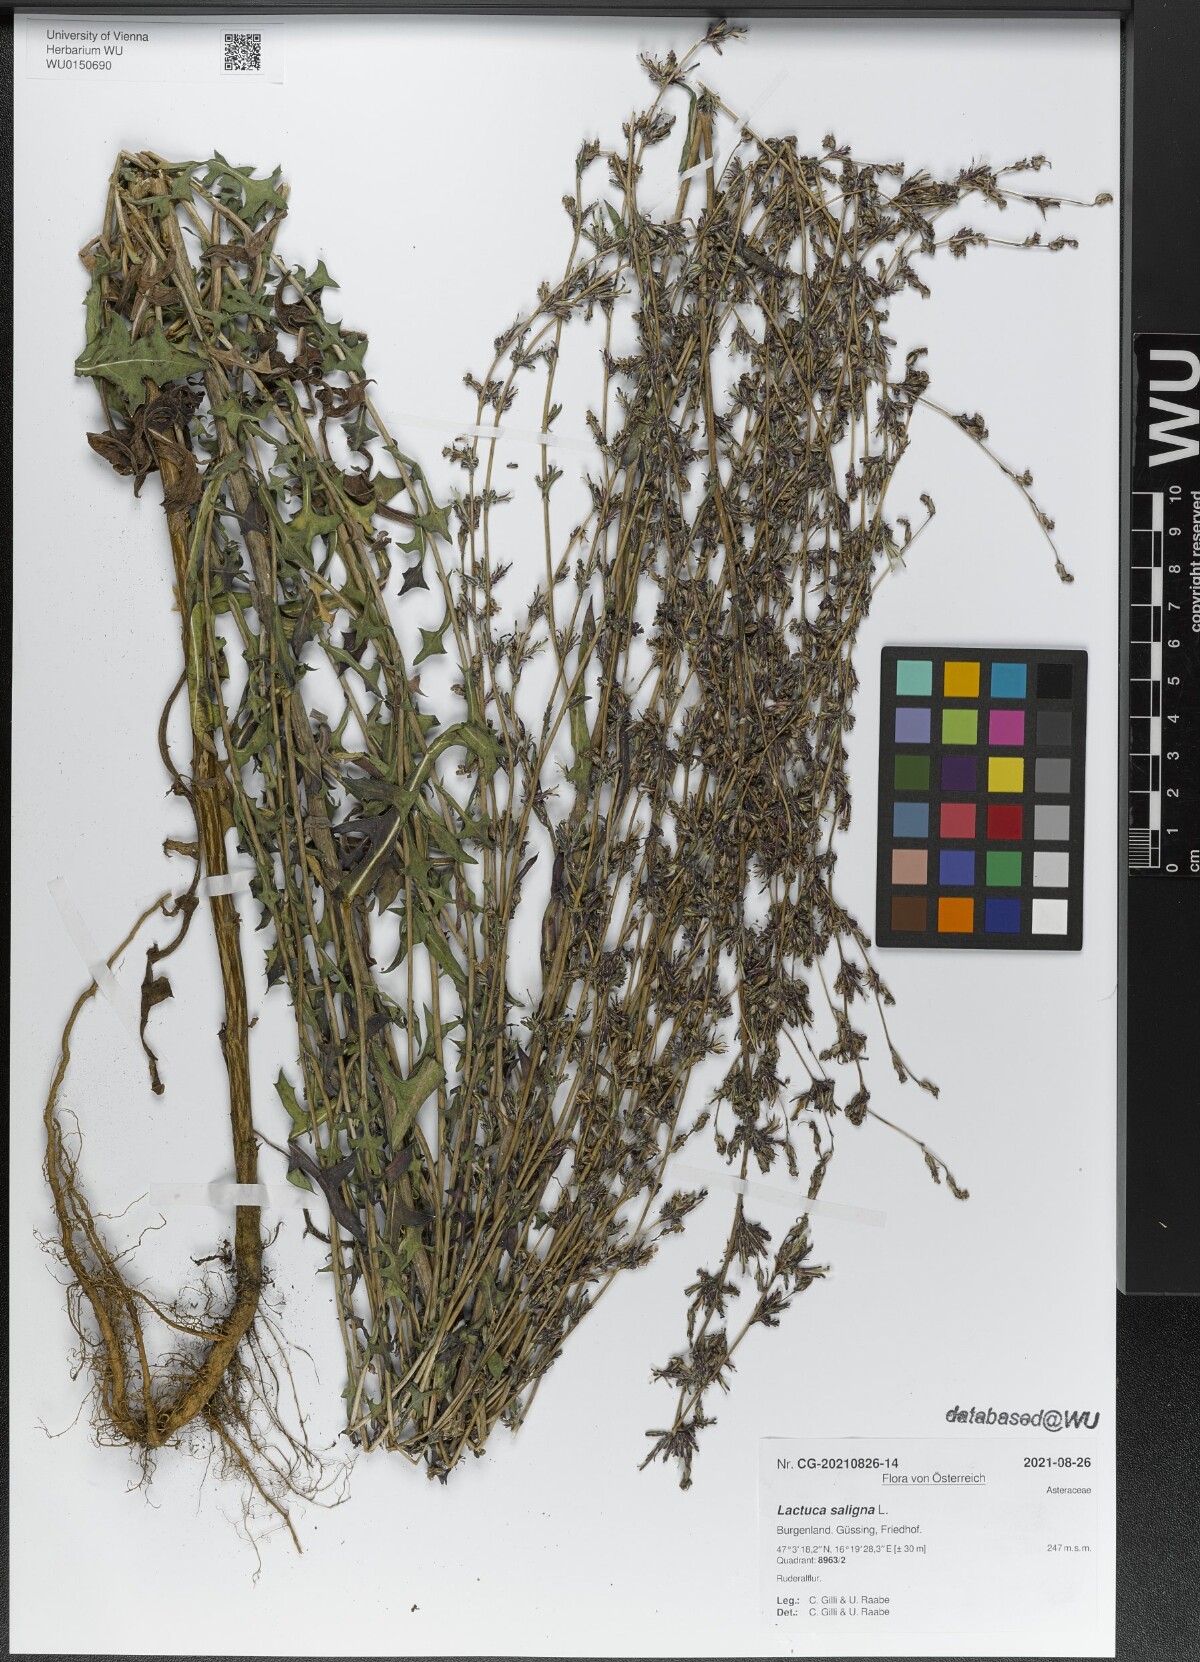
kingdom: Plantae
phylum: Tracheophyta
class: Magnoliopsida
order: Asterales
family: Asteraceae
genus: Lactuca
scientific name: Lactuca saligna
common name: Wild lettuce
